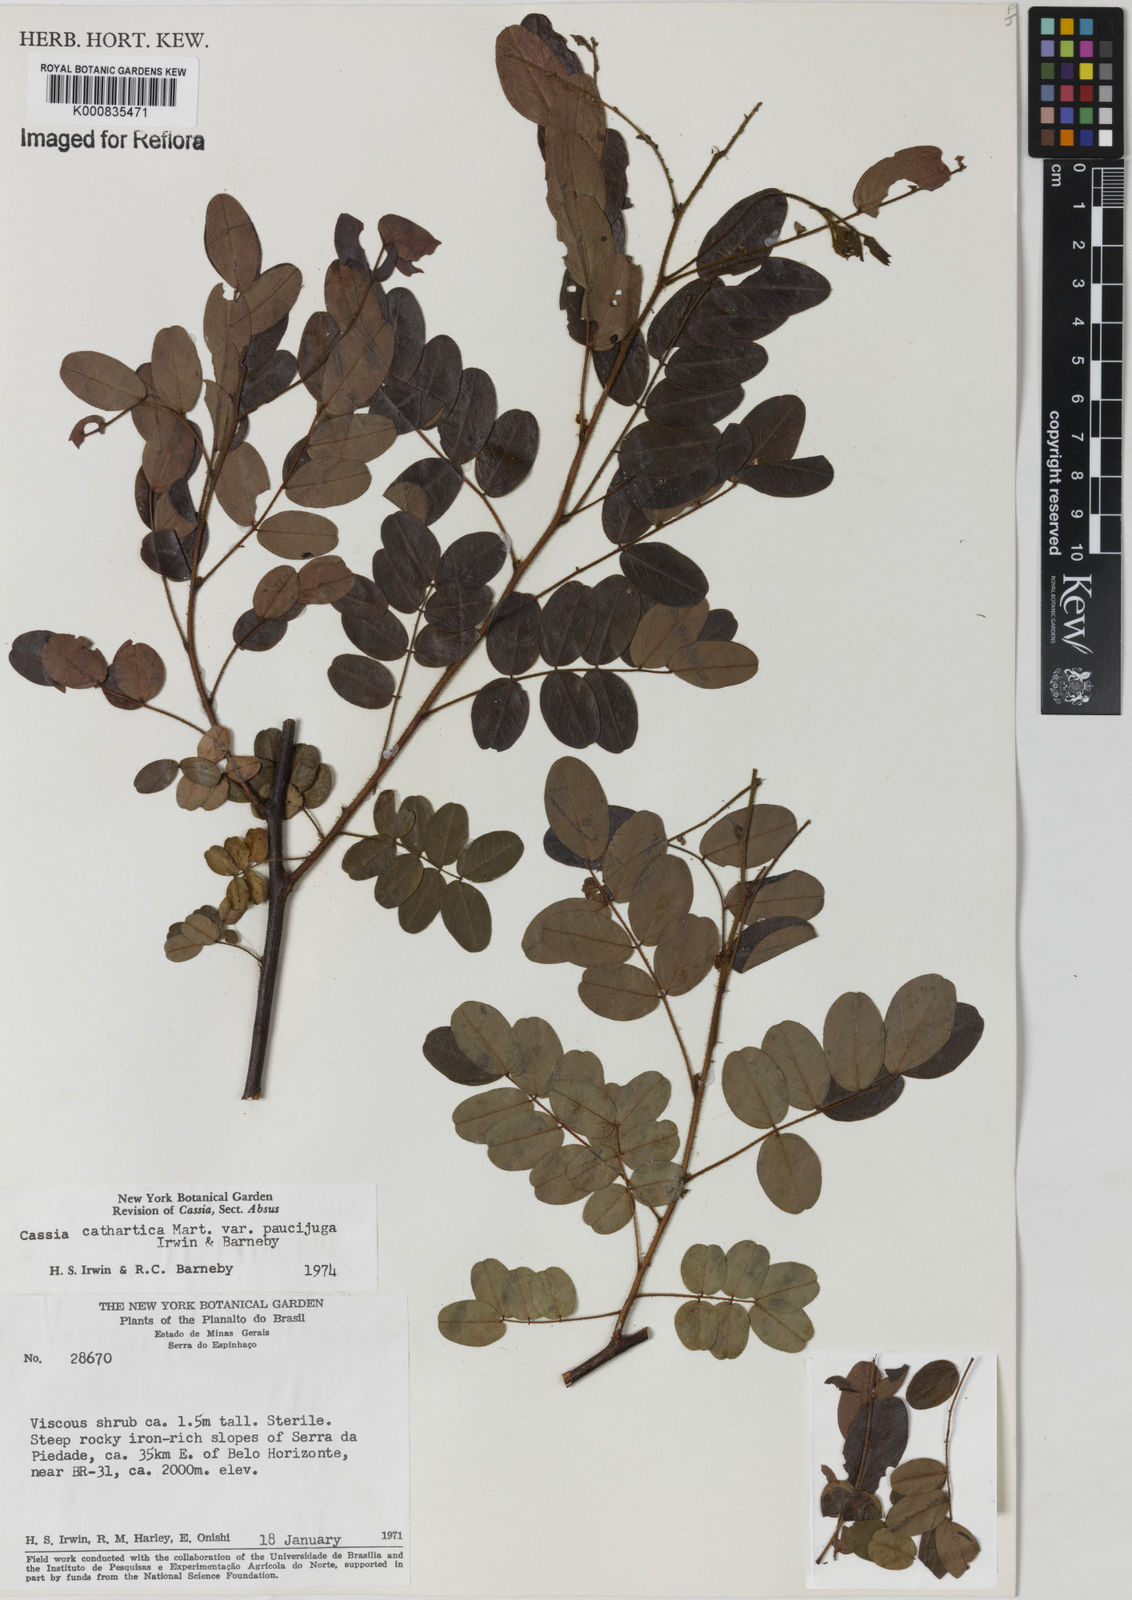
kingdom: Plantae
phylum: Tracheophyta
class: Magnoliopsida
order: Fabales
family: Fabaceae
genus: Chamaecrista
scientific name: Chamaecrista cathartica
